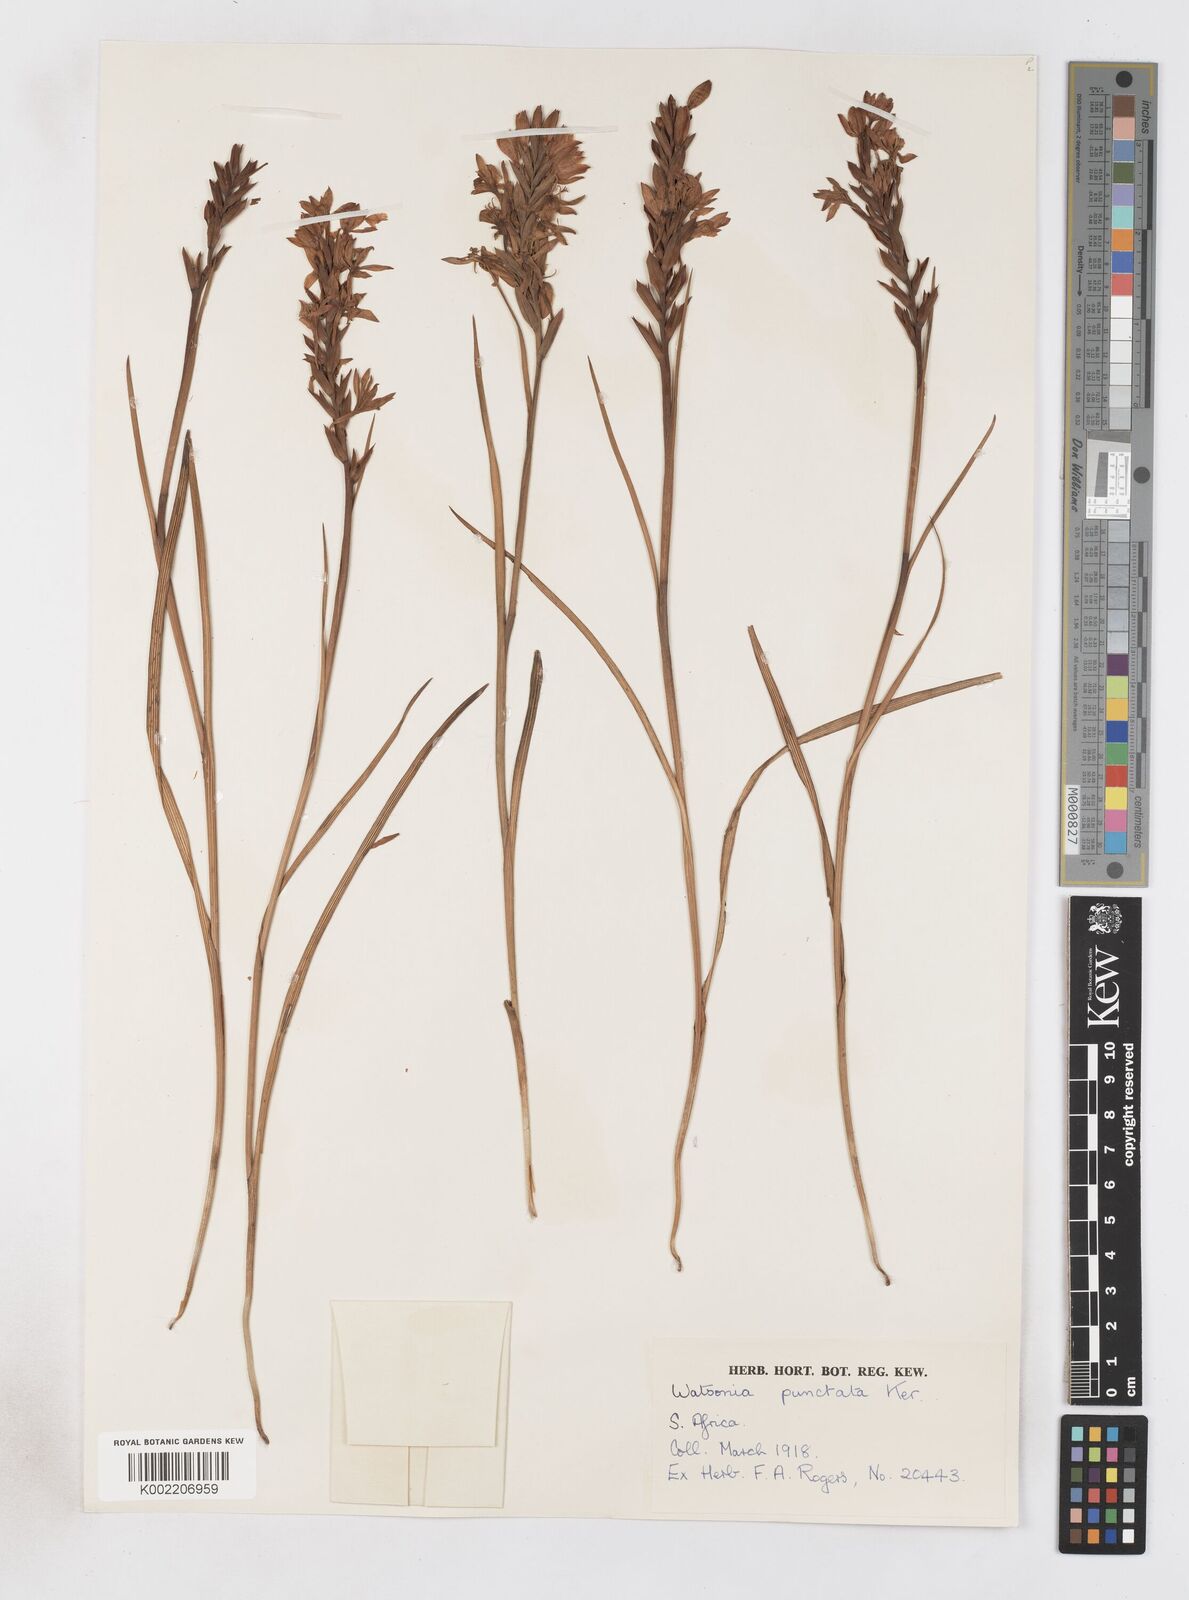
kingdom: Plantae
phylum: Tracheophyta
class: Liliopsida
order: Asparagales
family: Iridaceae
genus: Thereianthus
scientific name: Thereianthus spicatus
